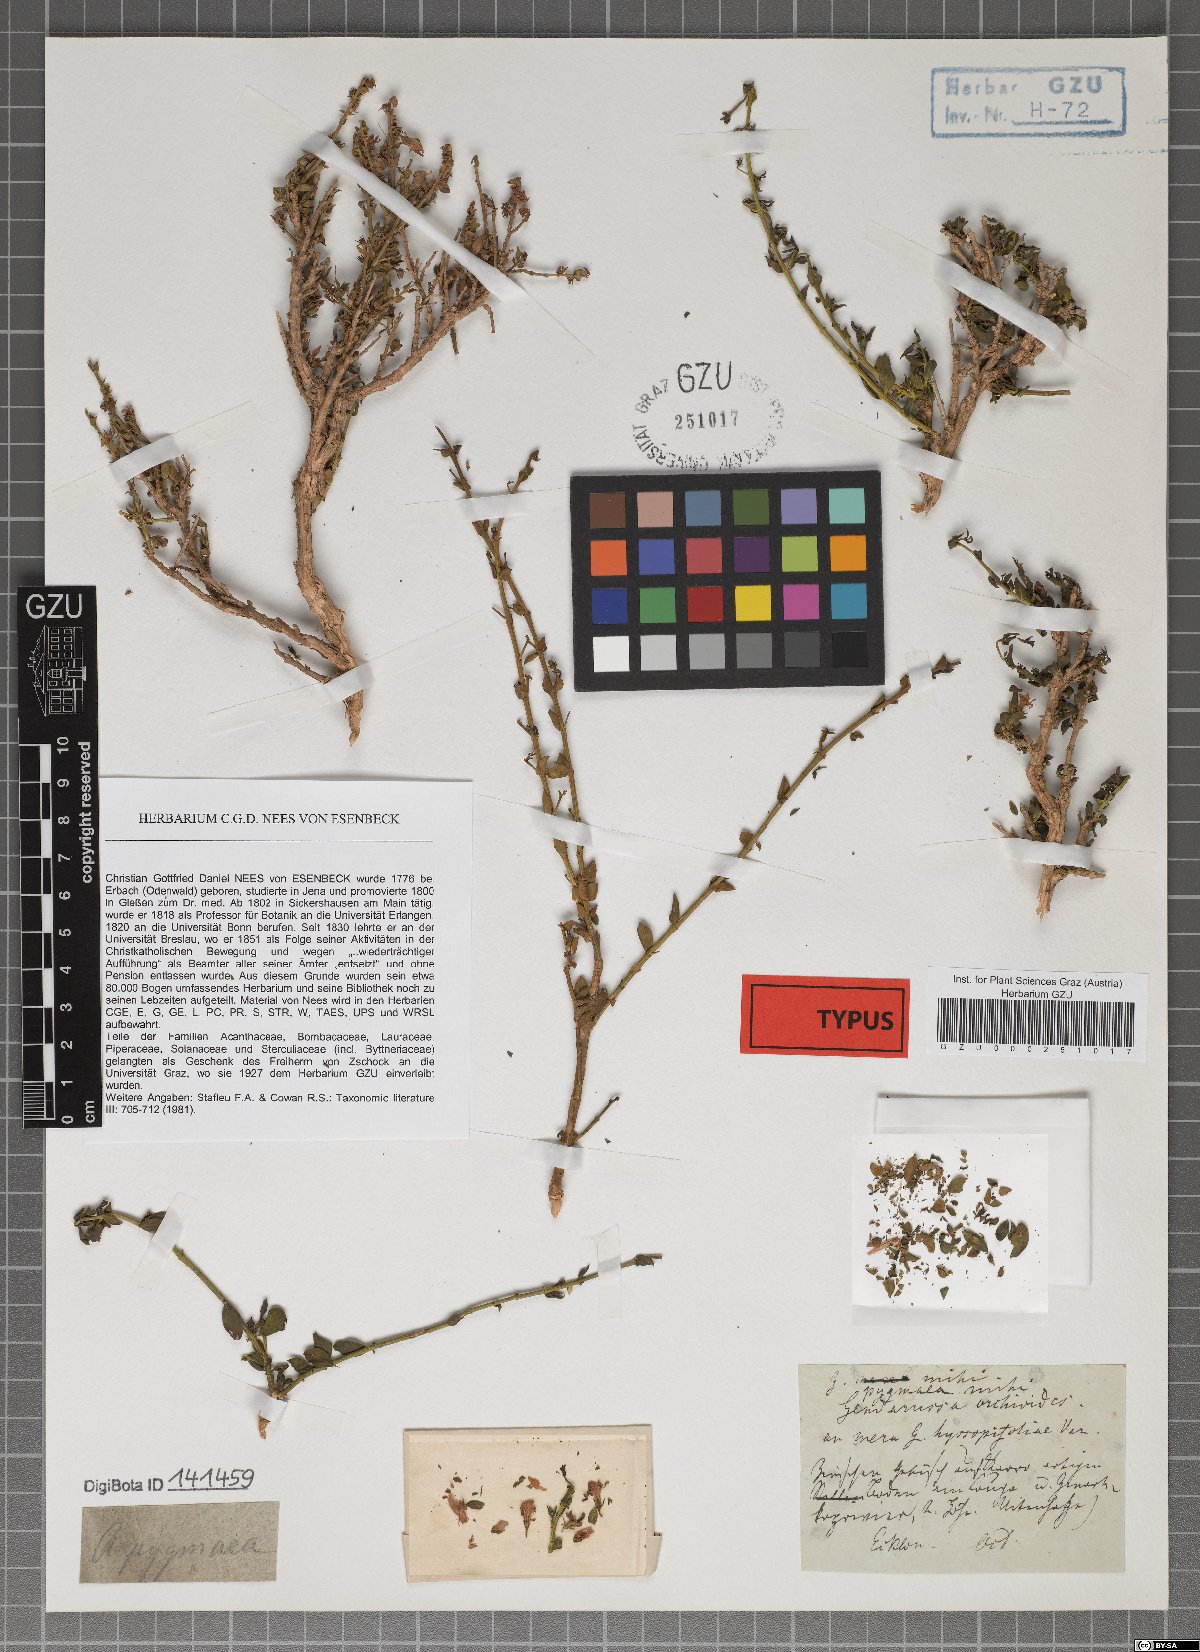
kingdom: Plantae
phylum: Tracheophyta
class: Magnoliopsida
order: Lamiales
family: Acanthaceae
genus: Justicia
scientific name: Justicia orchioides
